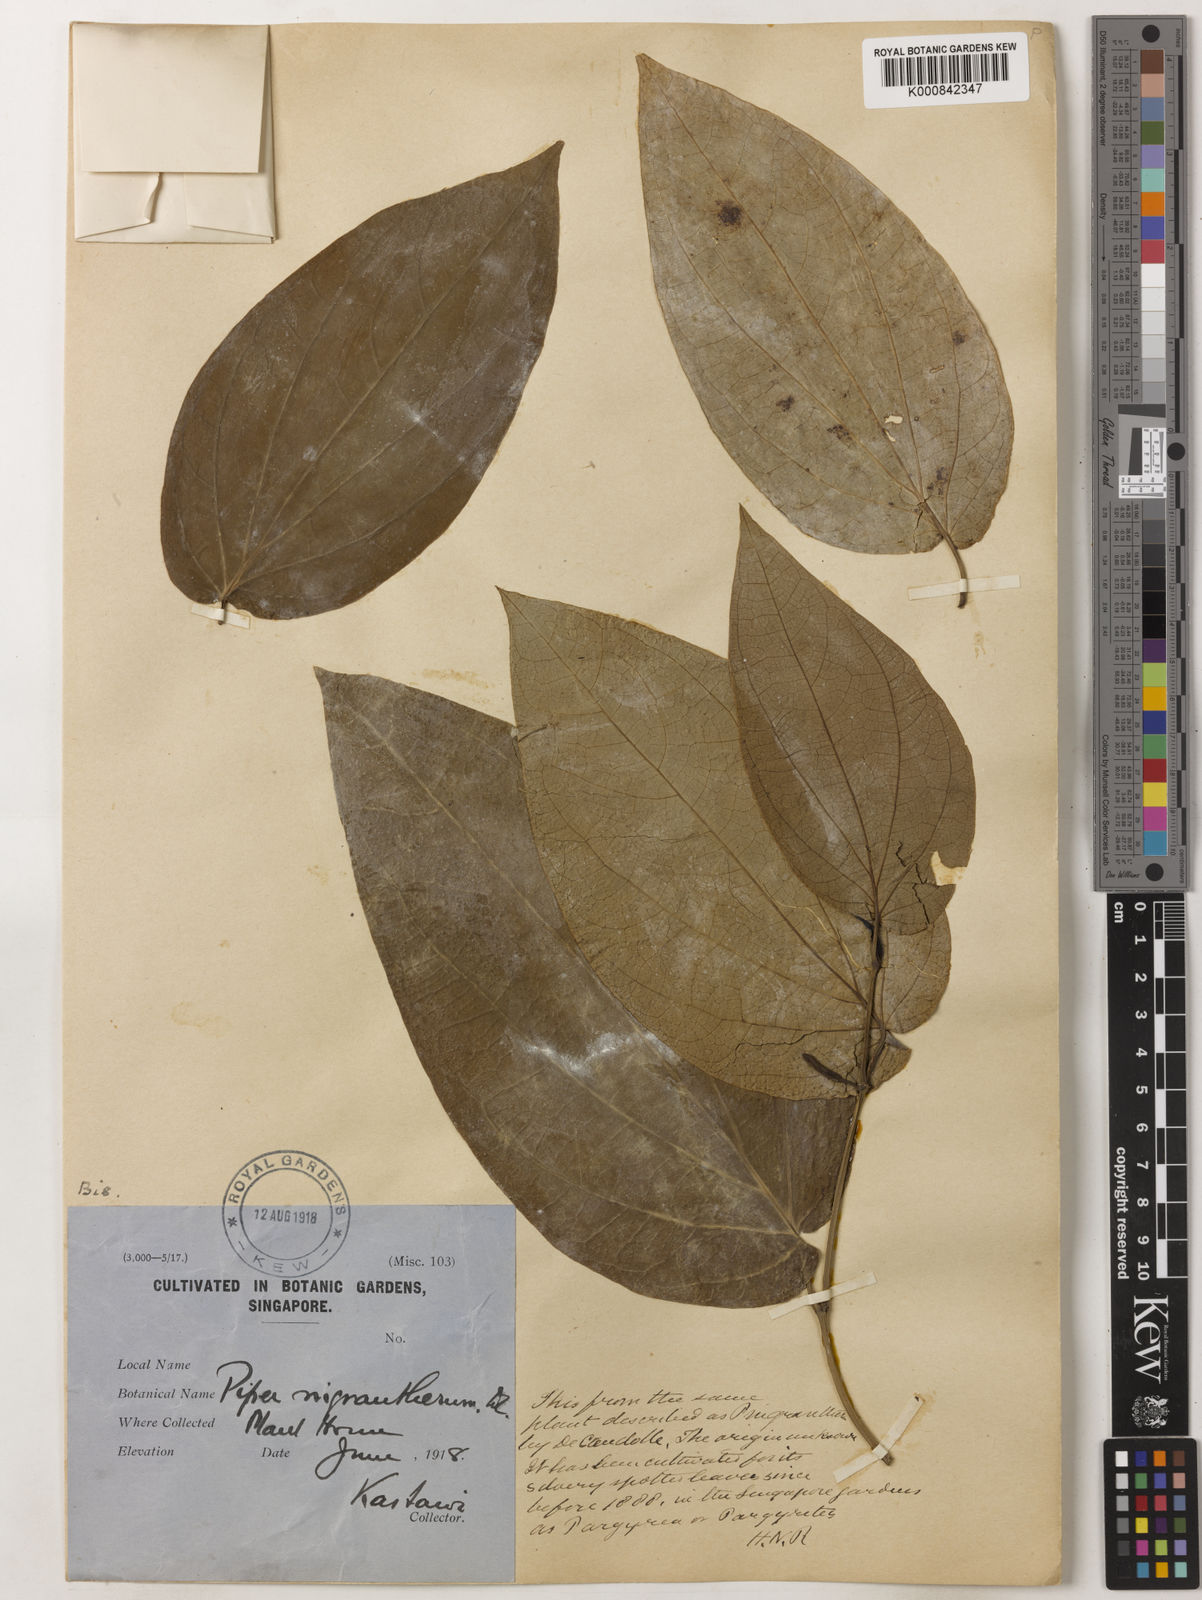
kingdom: Plantae
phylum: Tracheophyta
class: Magnoliopsida
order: Piperales
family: Piperaceae
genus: Piper
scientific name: Piper argyrites
